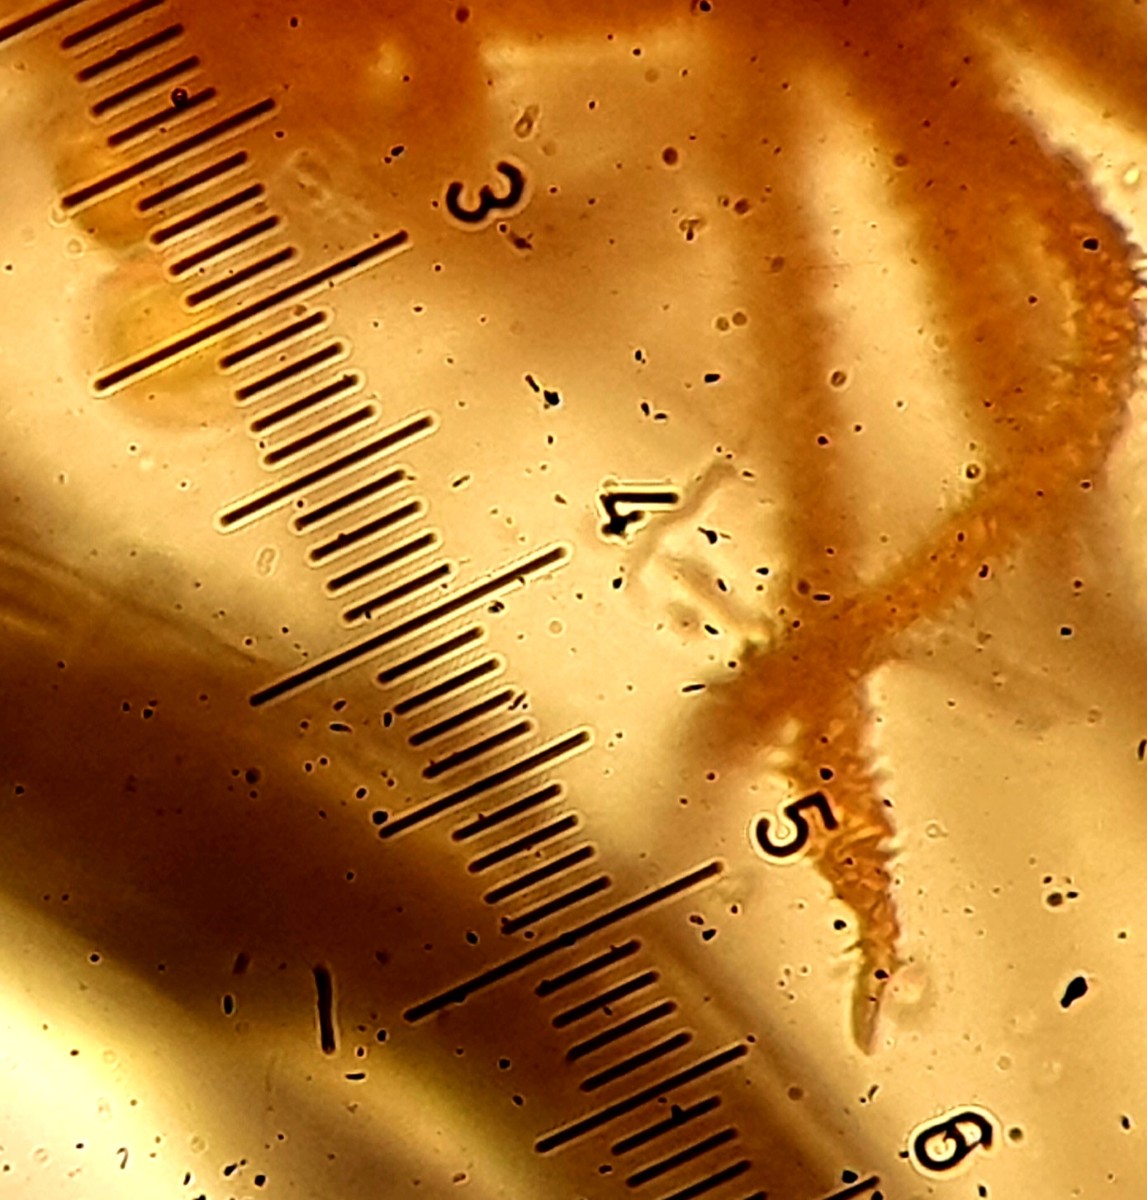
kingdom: Protozoa
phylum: Mycetozoa
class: Myxomycetes
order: Trichiales
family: Trichiaceae
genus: Metatrichia
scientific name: Metatrichia vesparia
